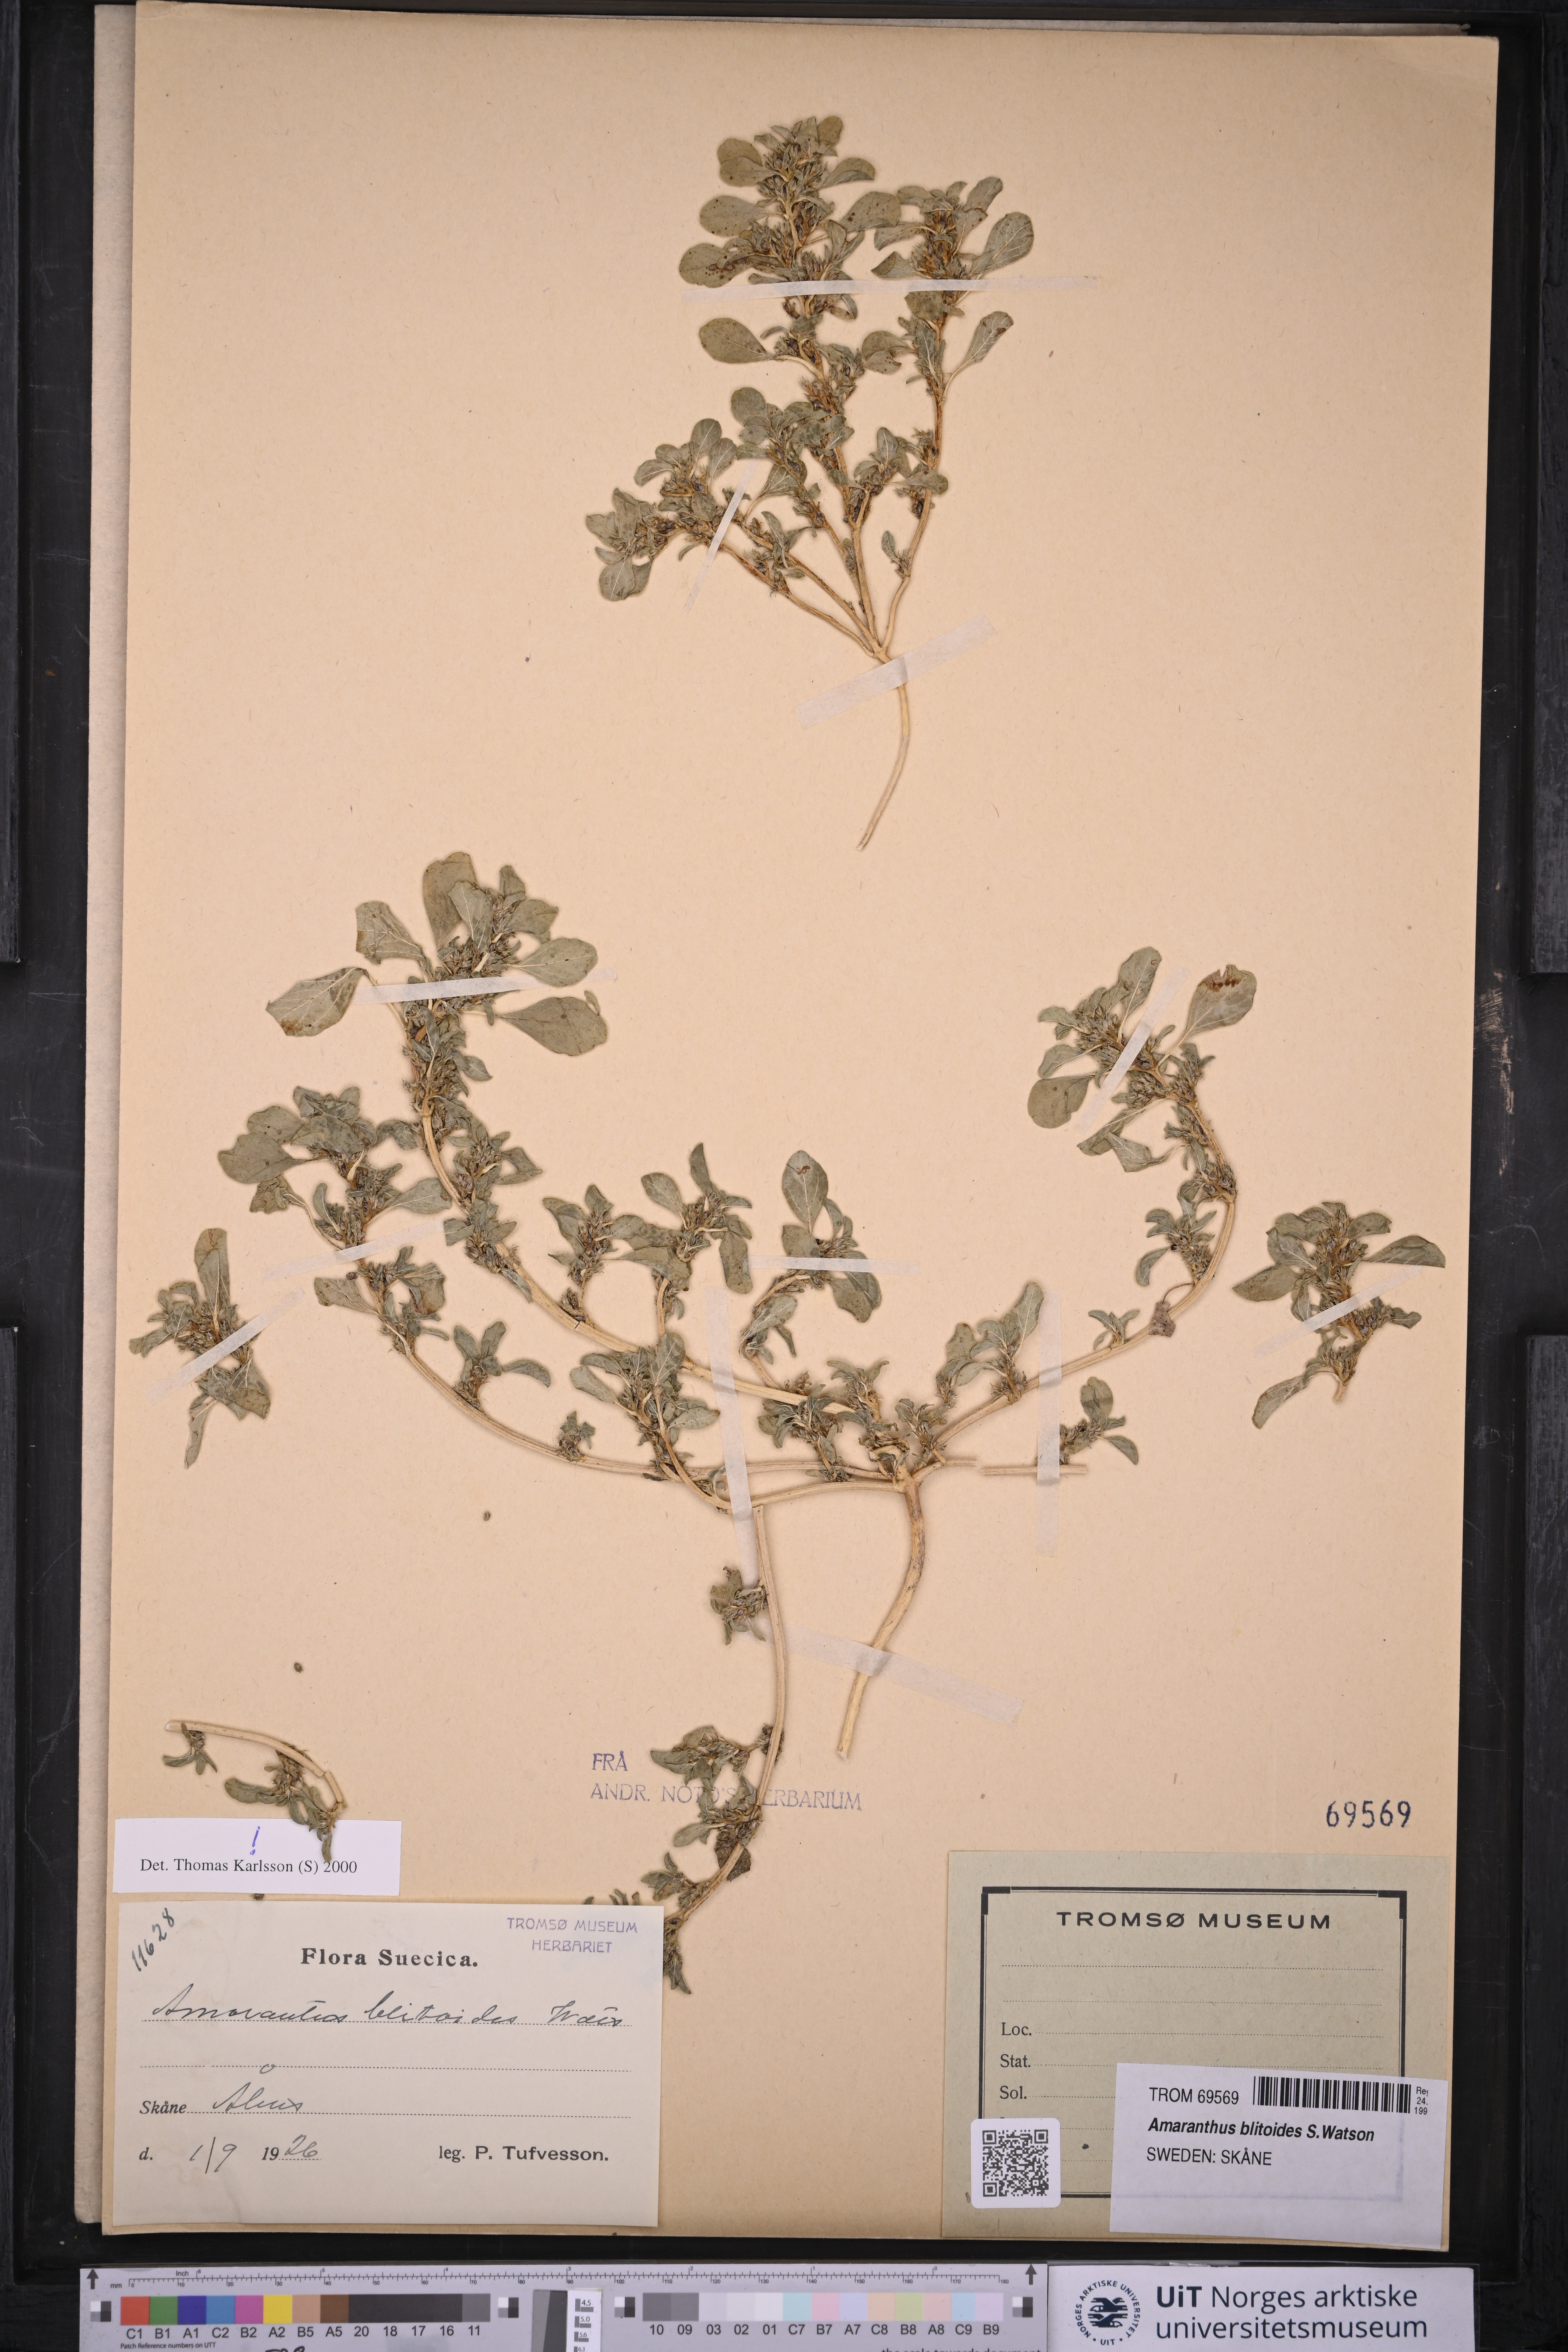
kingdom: Plantae
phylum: Tracheophyta
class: Magnoliopsida
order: Caryophyllales
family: Amaranthaceae
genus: Amaranthus
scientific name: Amaranthus blitoides
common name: Prostrate pigweed
